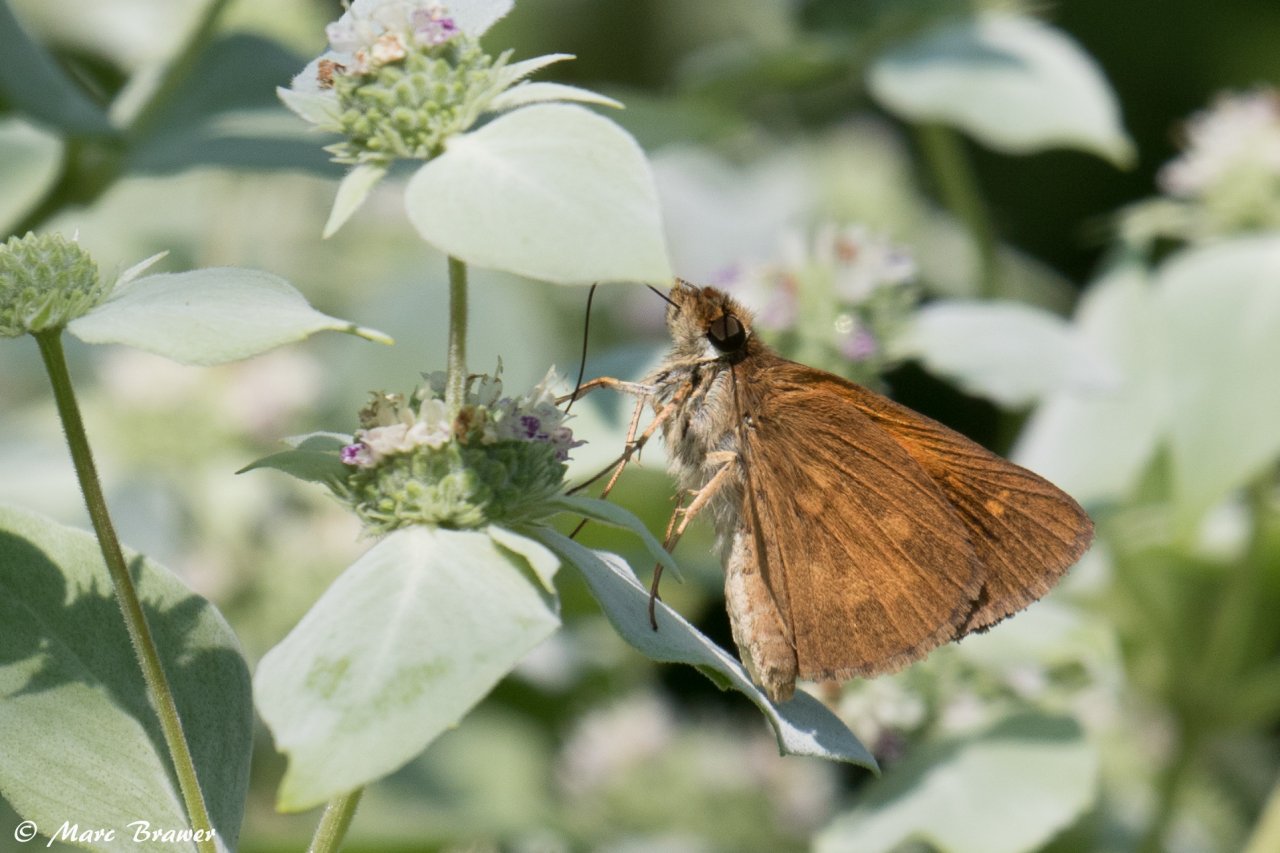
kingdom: Animalia
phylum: Arthropoda
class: Insecta
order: Lepidoptera
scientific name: Lepidoptera
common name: Butterflies
